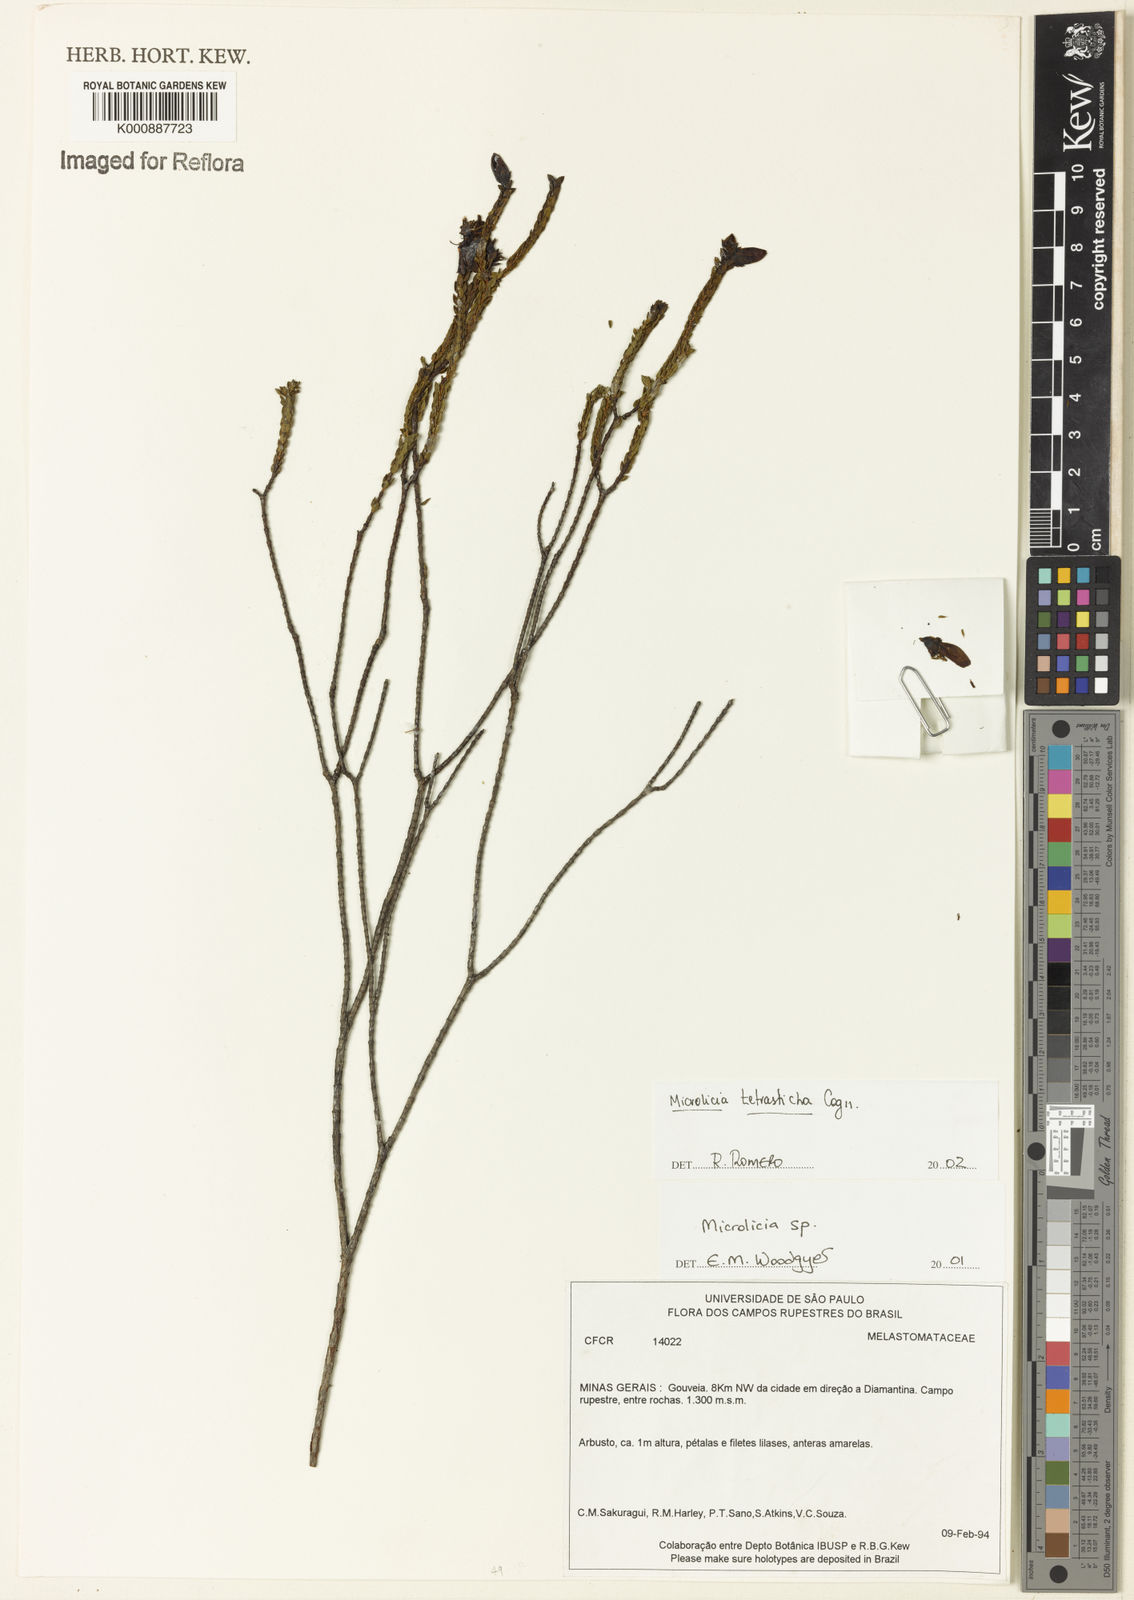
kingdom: Plantae
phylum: Tracheophyta
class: Magnoliopsida
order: Myrtales
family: Melastomataceae
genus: Microlicia
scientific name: Microlicia tetrasticha
